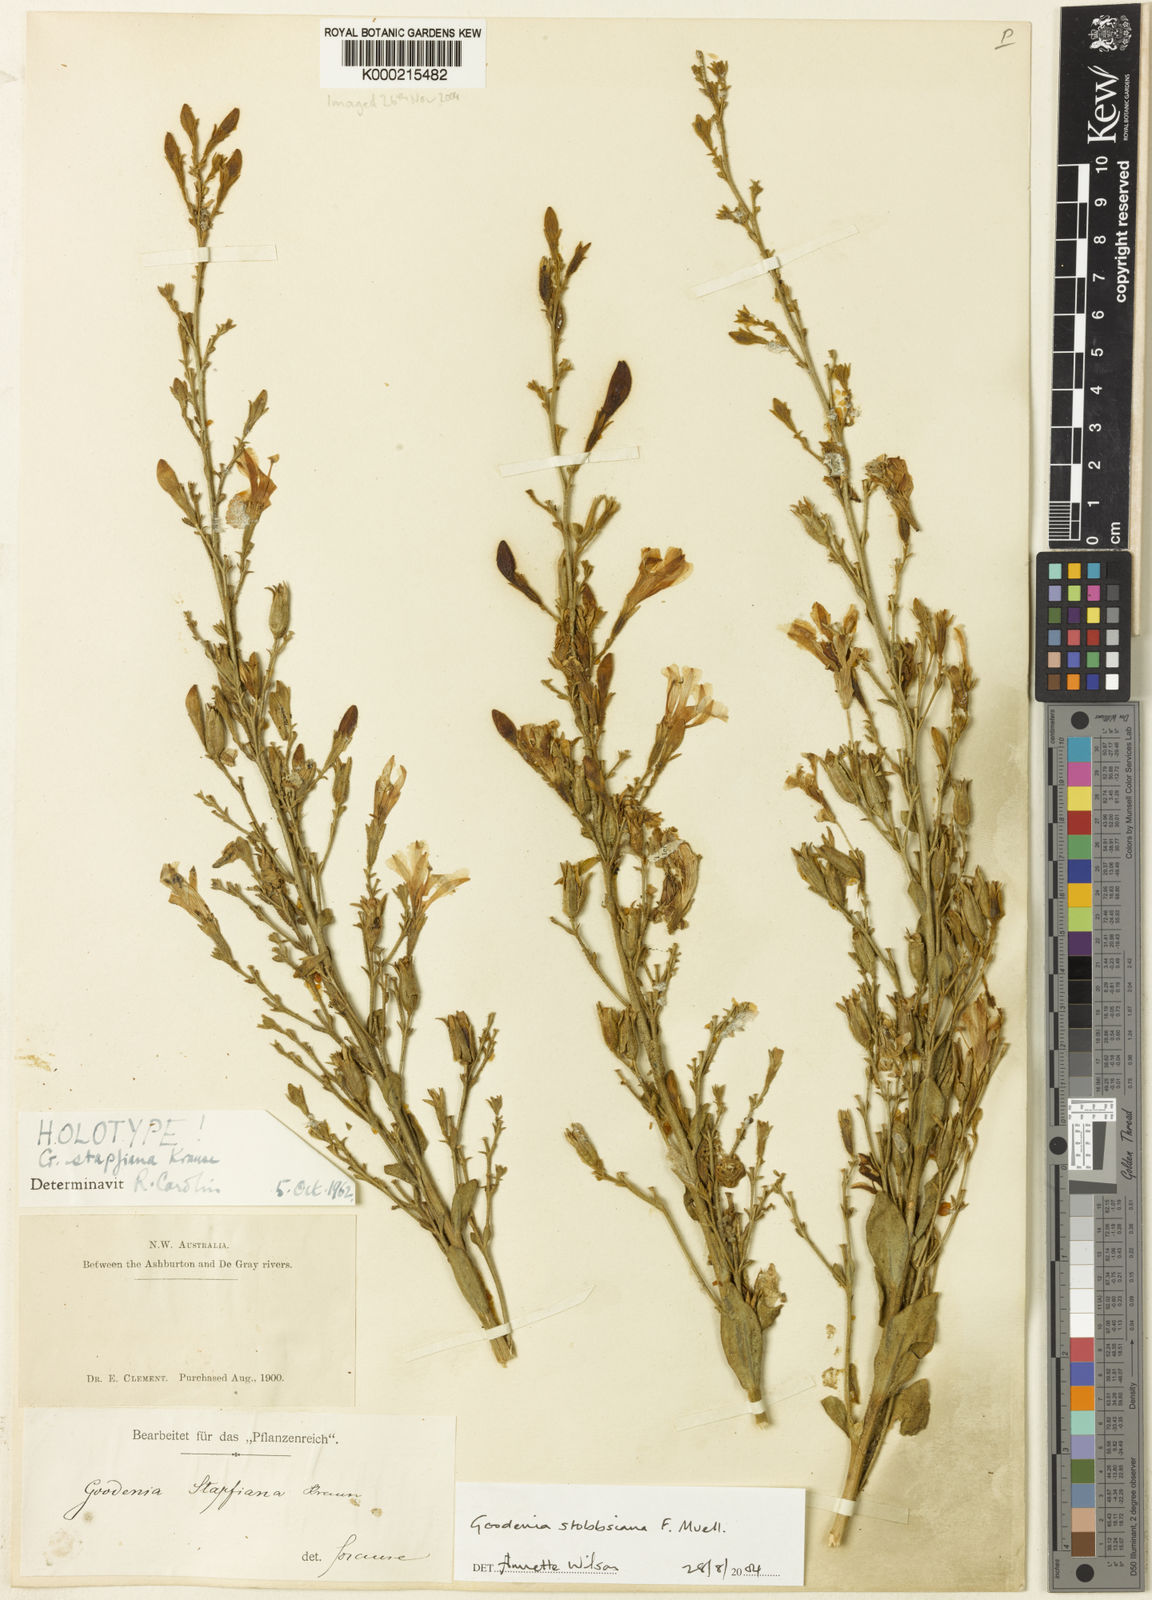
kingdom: Plantae
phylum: Tracheophyta
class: Magnoliopsida
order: Asterales
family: Goodeniaceae
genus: Goodenia
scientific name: Goodenia stobbsiana
